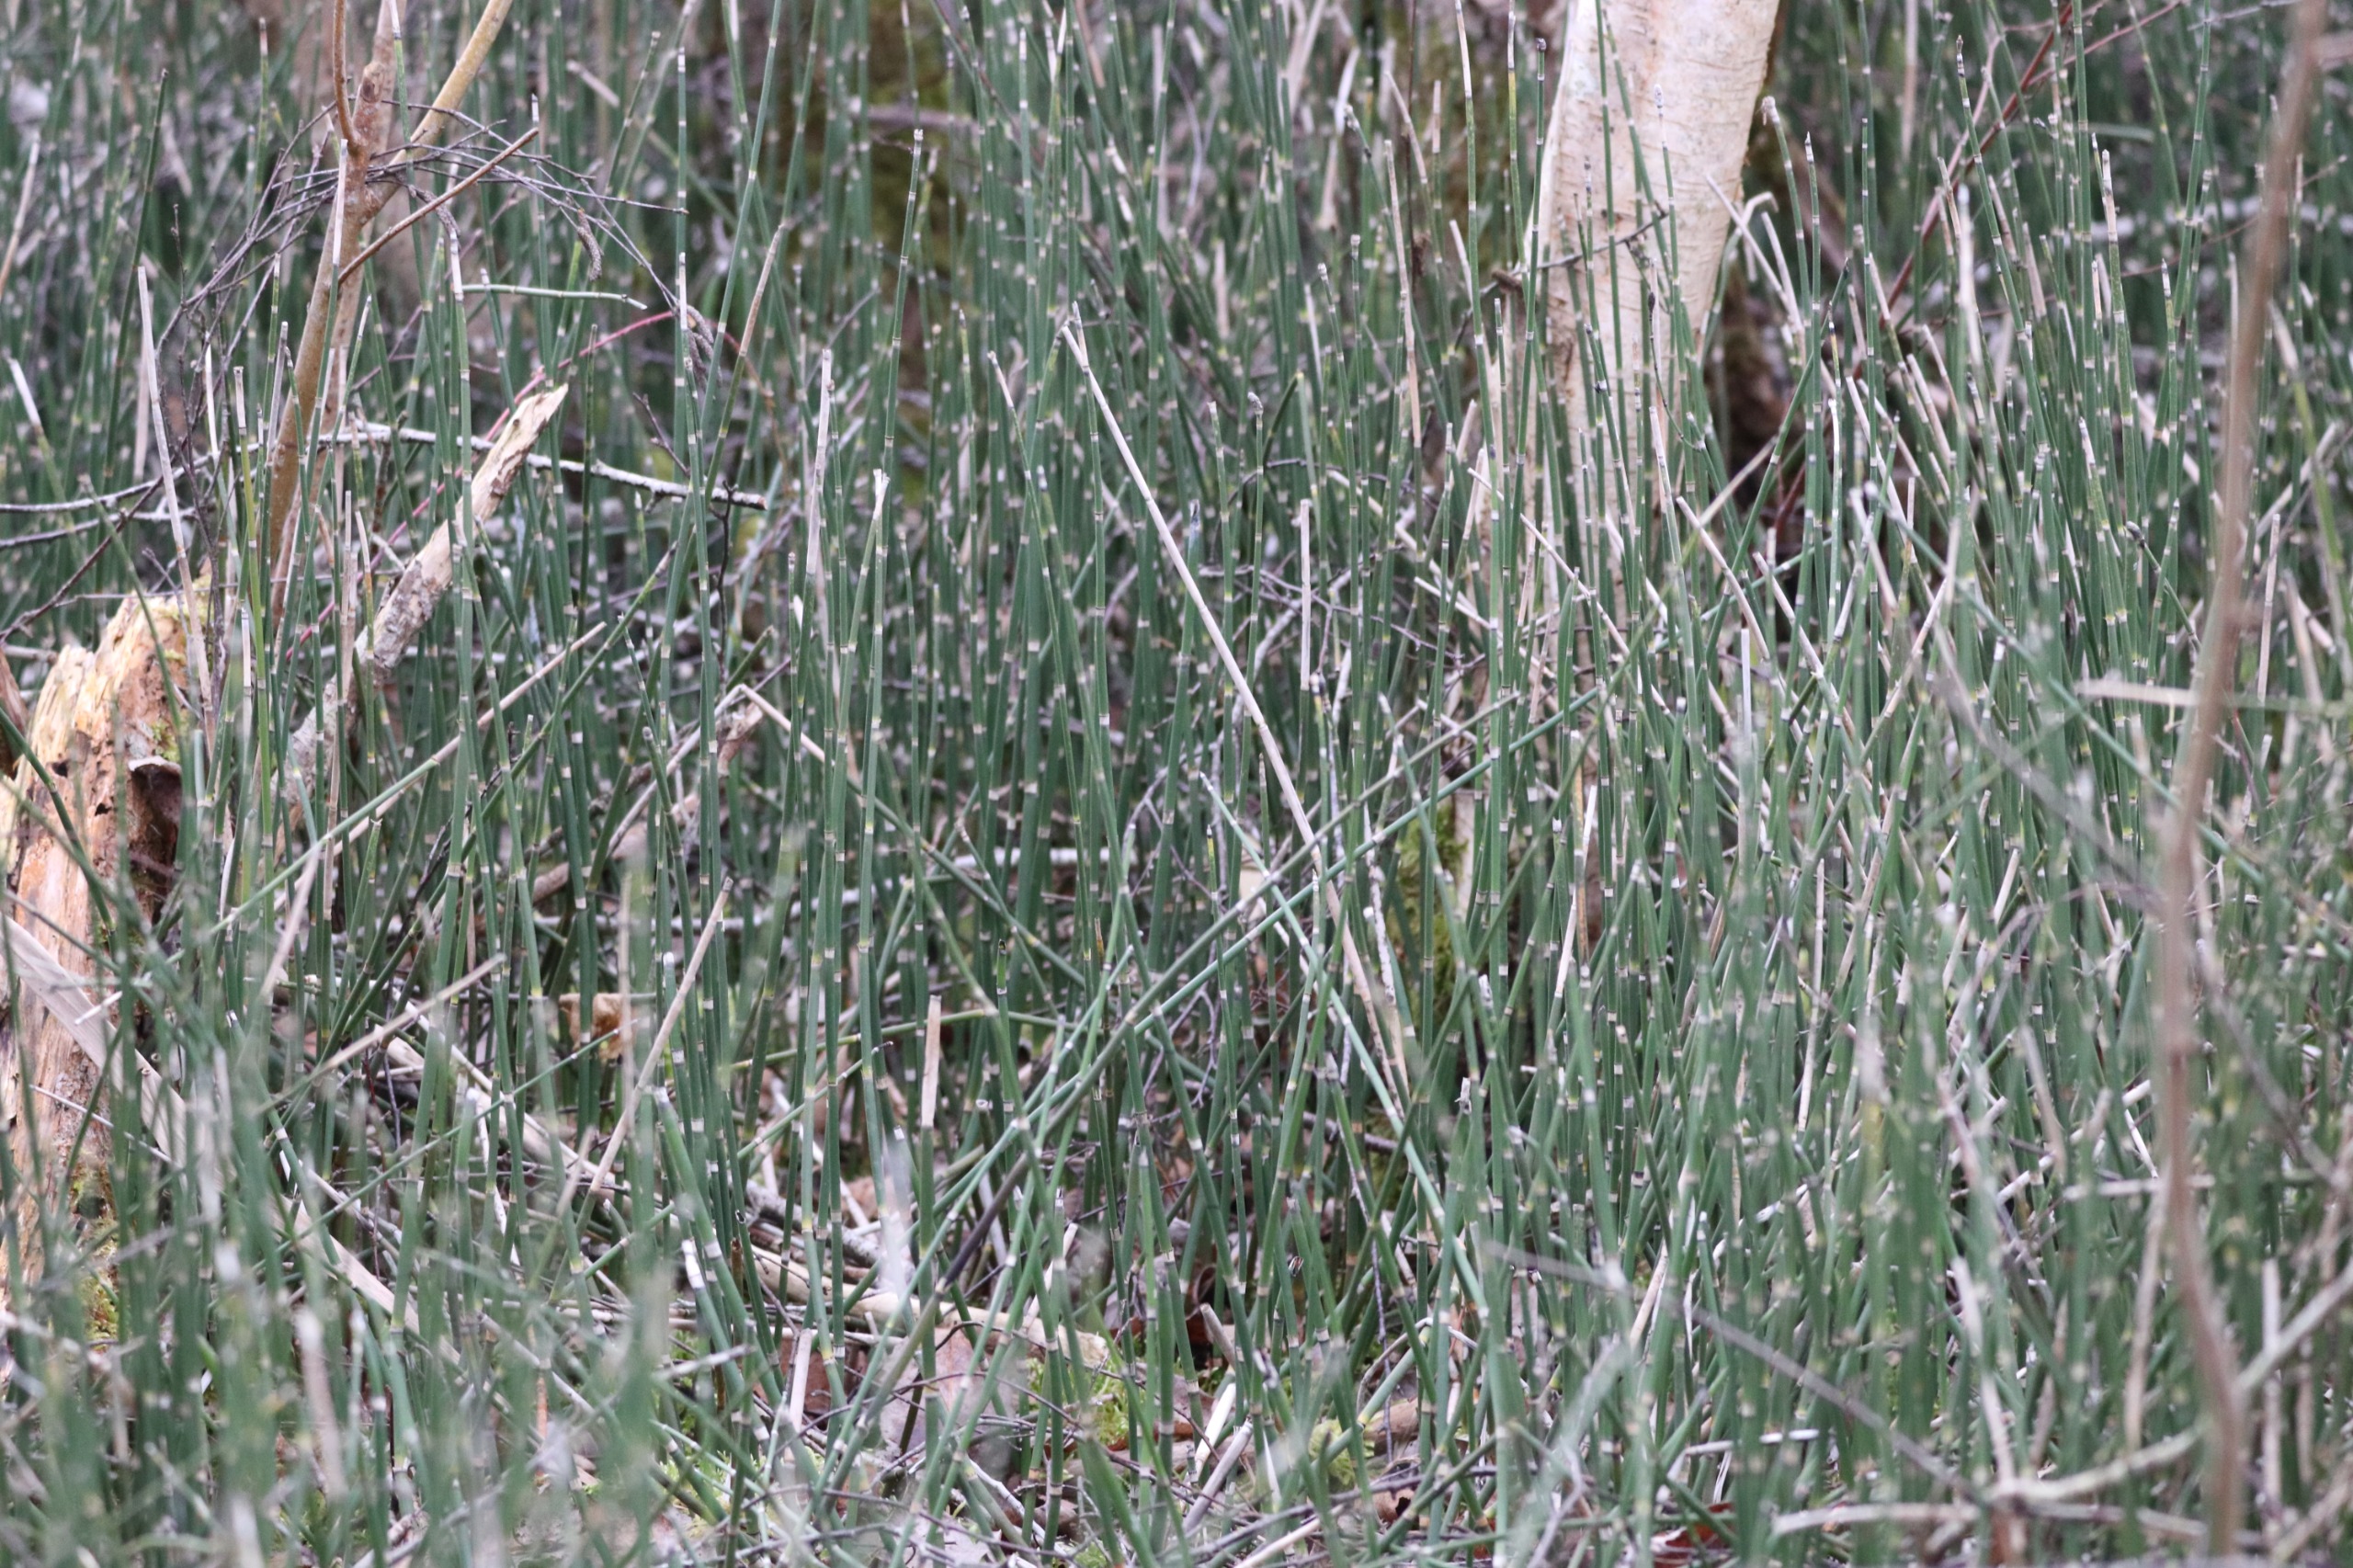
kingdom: Plantae
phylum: Tracheophyta
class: Polypodiopsida
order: Equisetales
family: Equisetaceae
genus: Equisetum
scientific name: Equisetum hyemale
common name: Skavgræs
